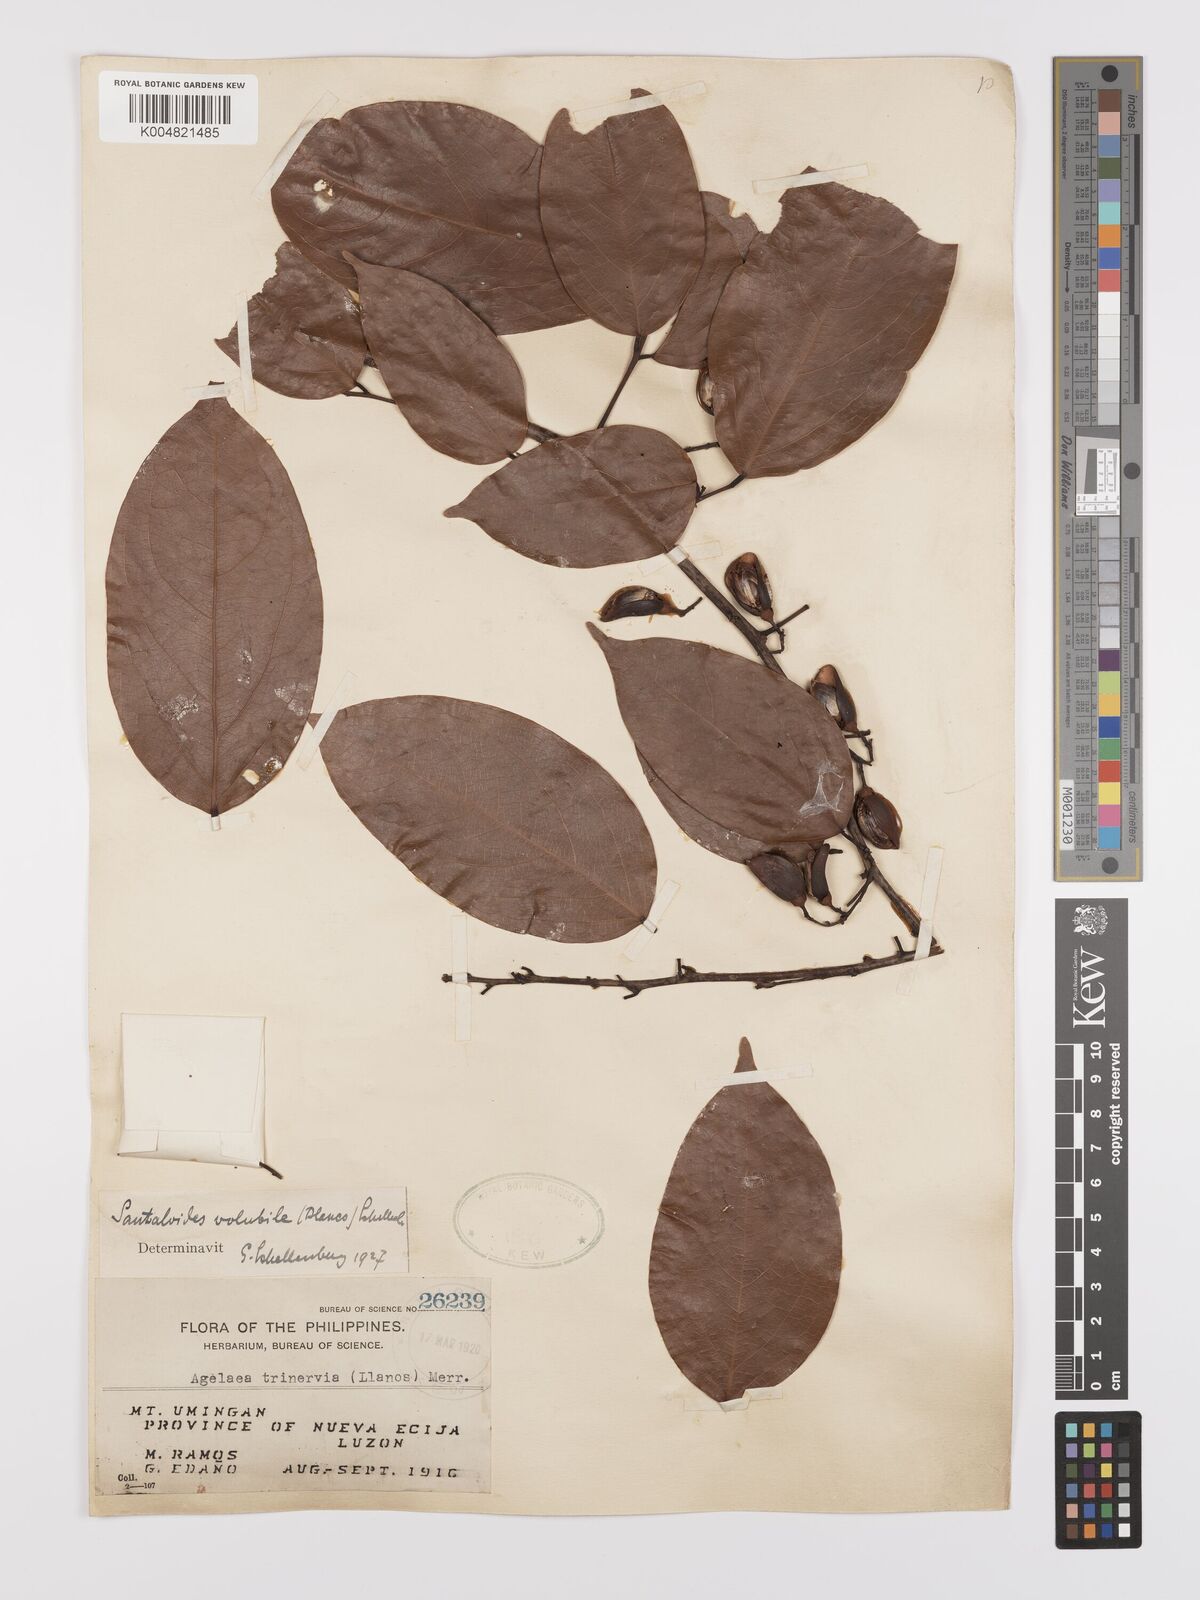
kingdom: Plantae
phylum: Tracheophyta
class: Magnoliopsida
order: Oxalidales
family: Connaraceae
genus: Rourea
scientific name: Rourea minor
